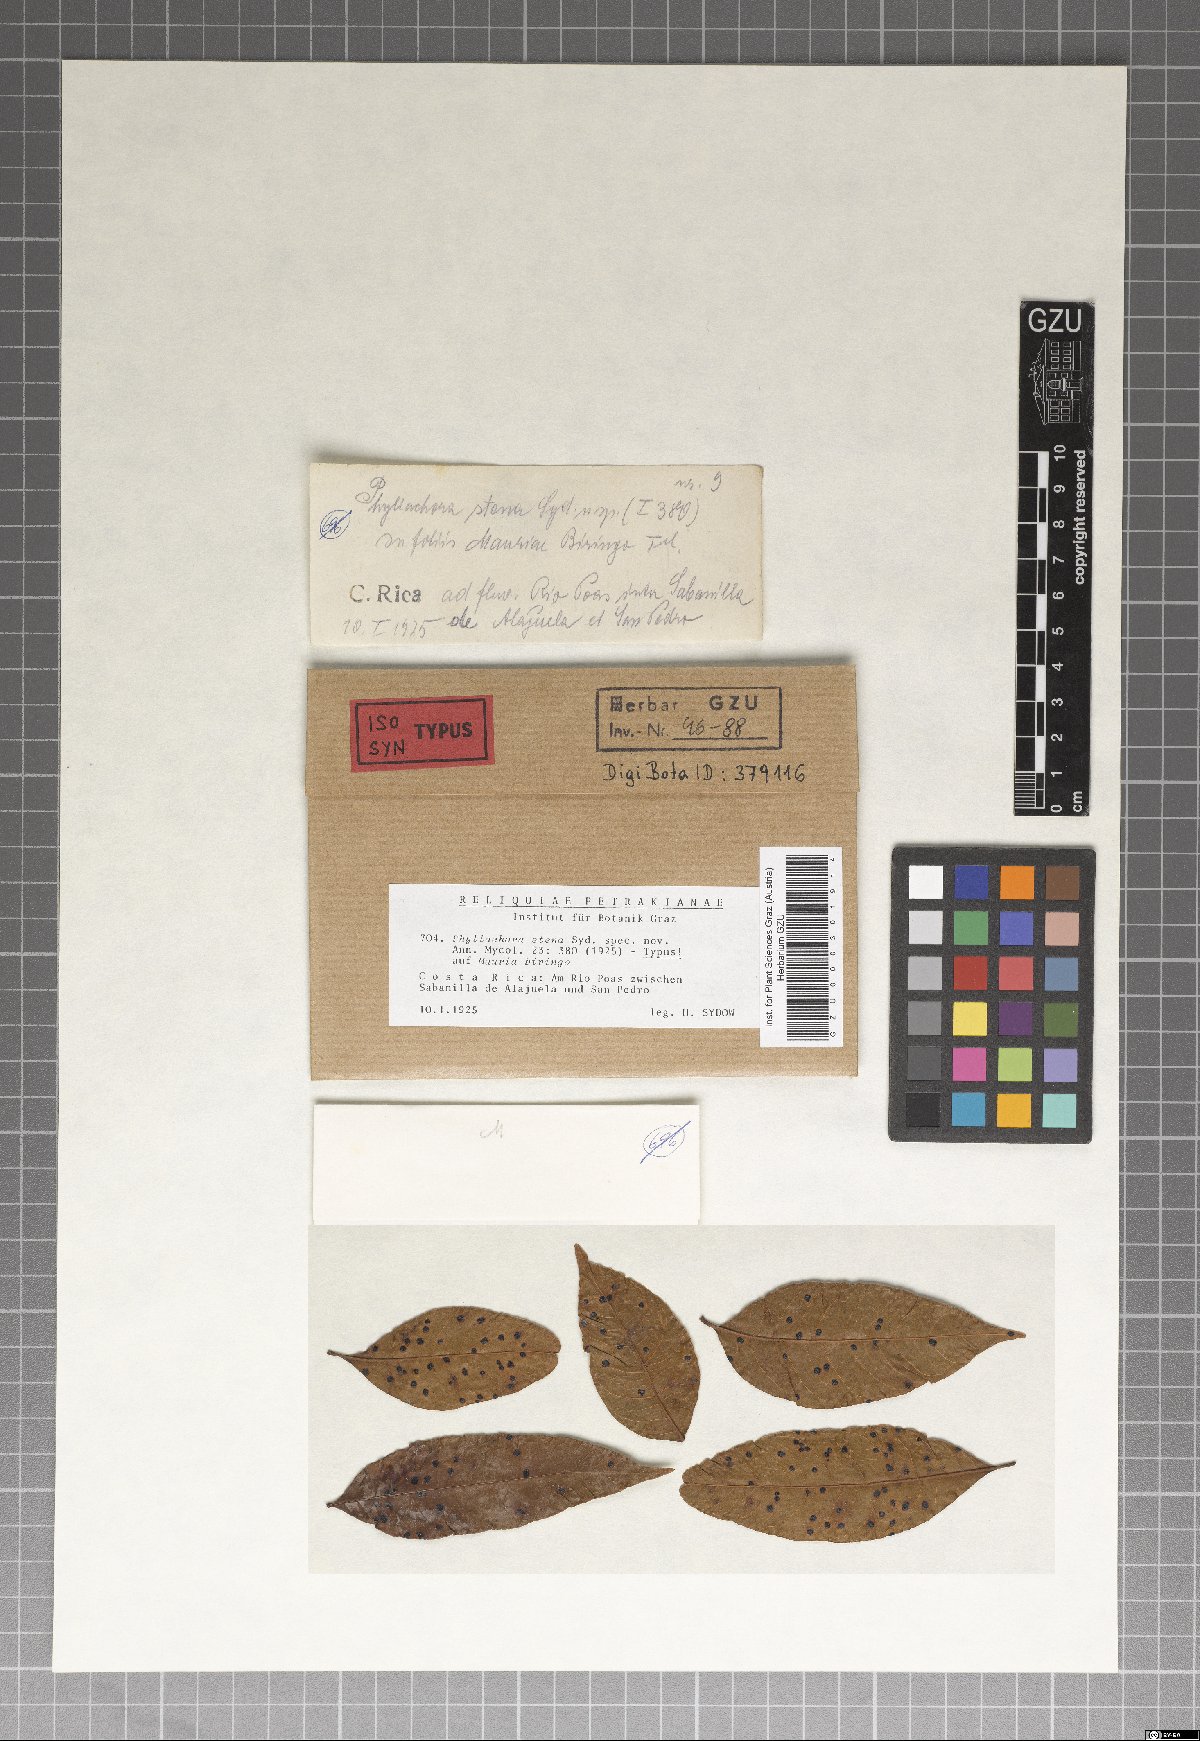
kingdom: Fungi
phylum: Ascomycota
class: Sordariomycetes
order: Phyllachorales
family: Phyllachoraceae
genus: Phyllachora
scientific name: Phyllachora stena
